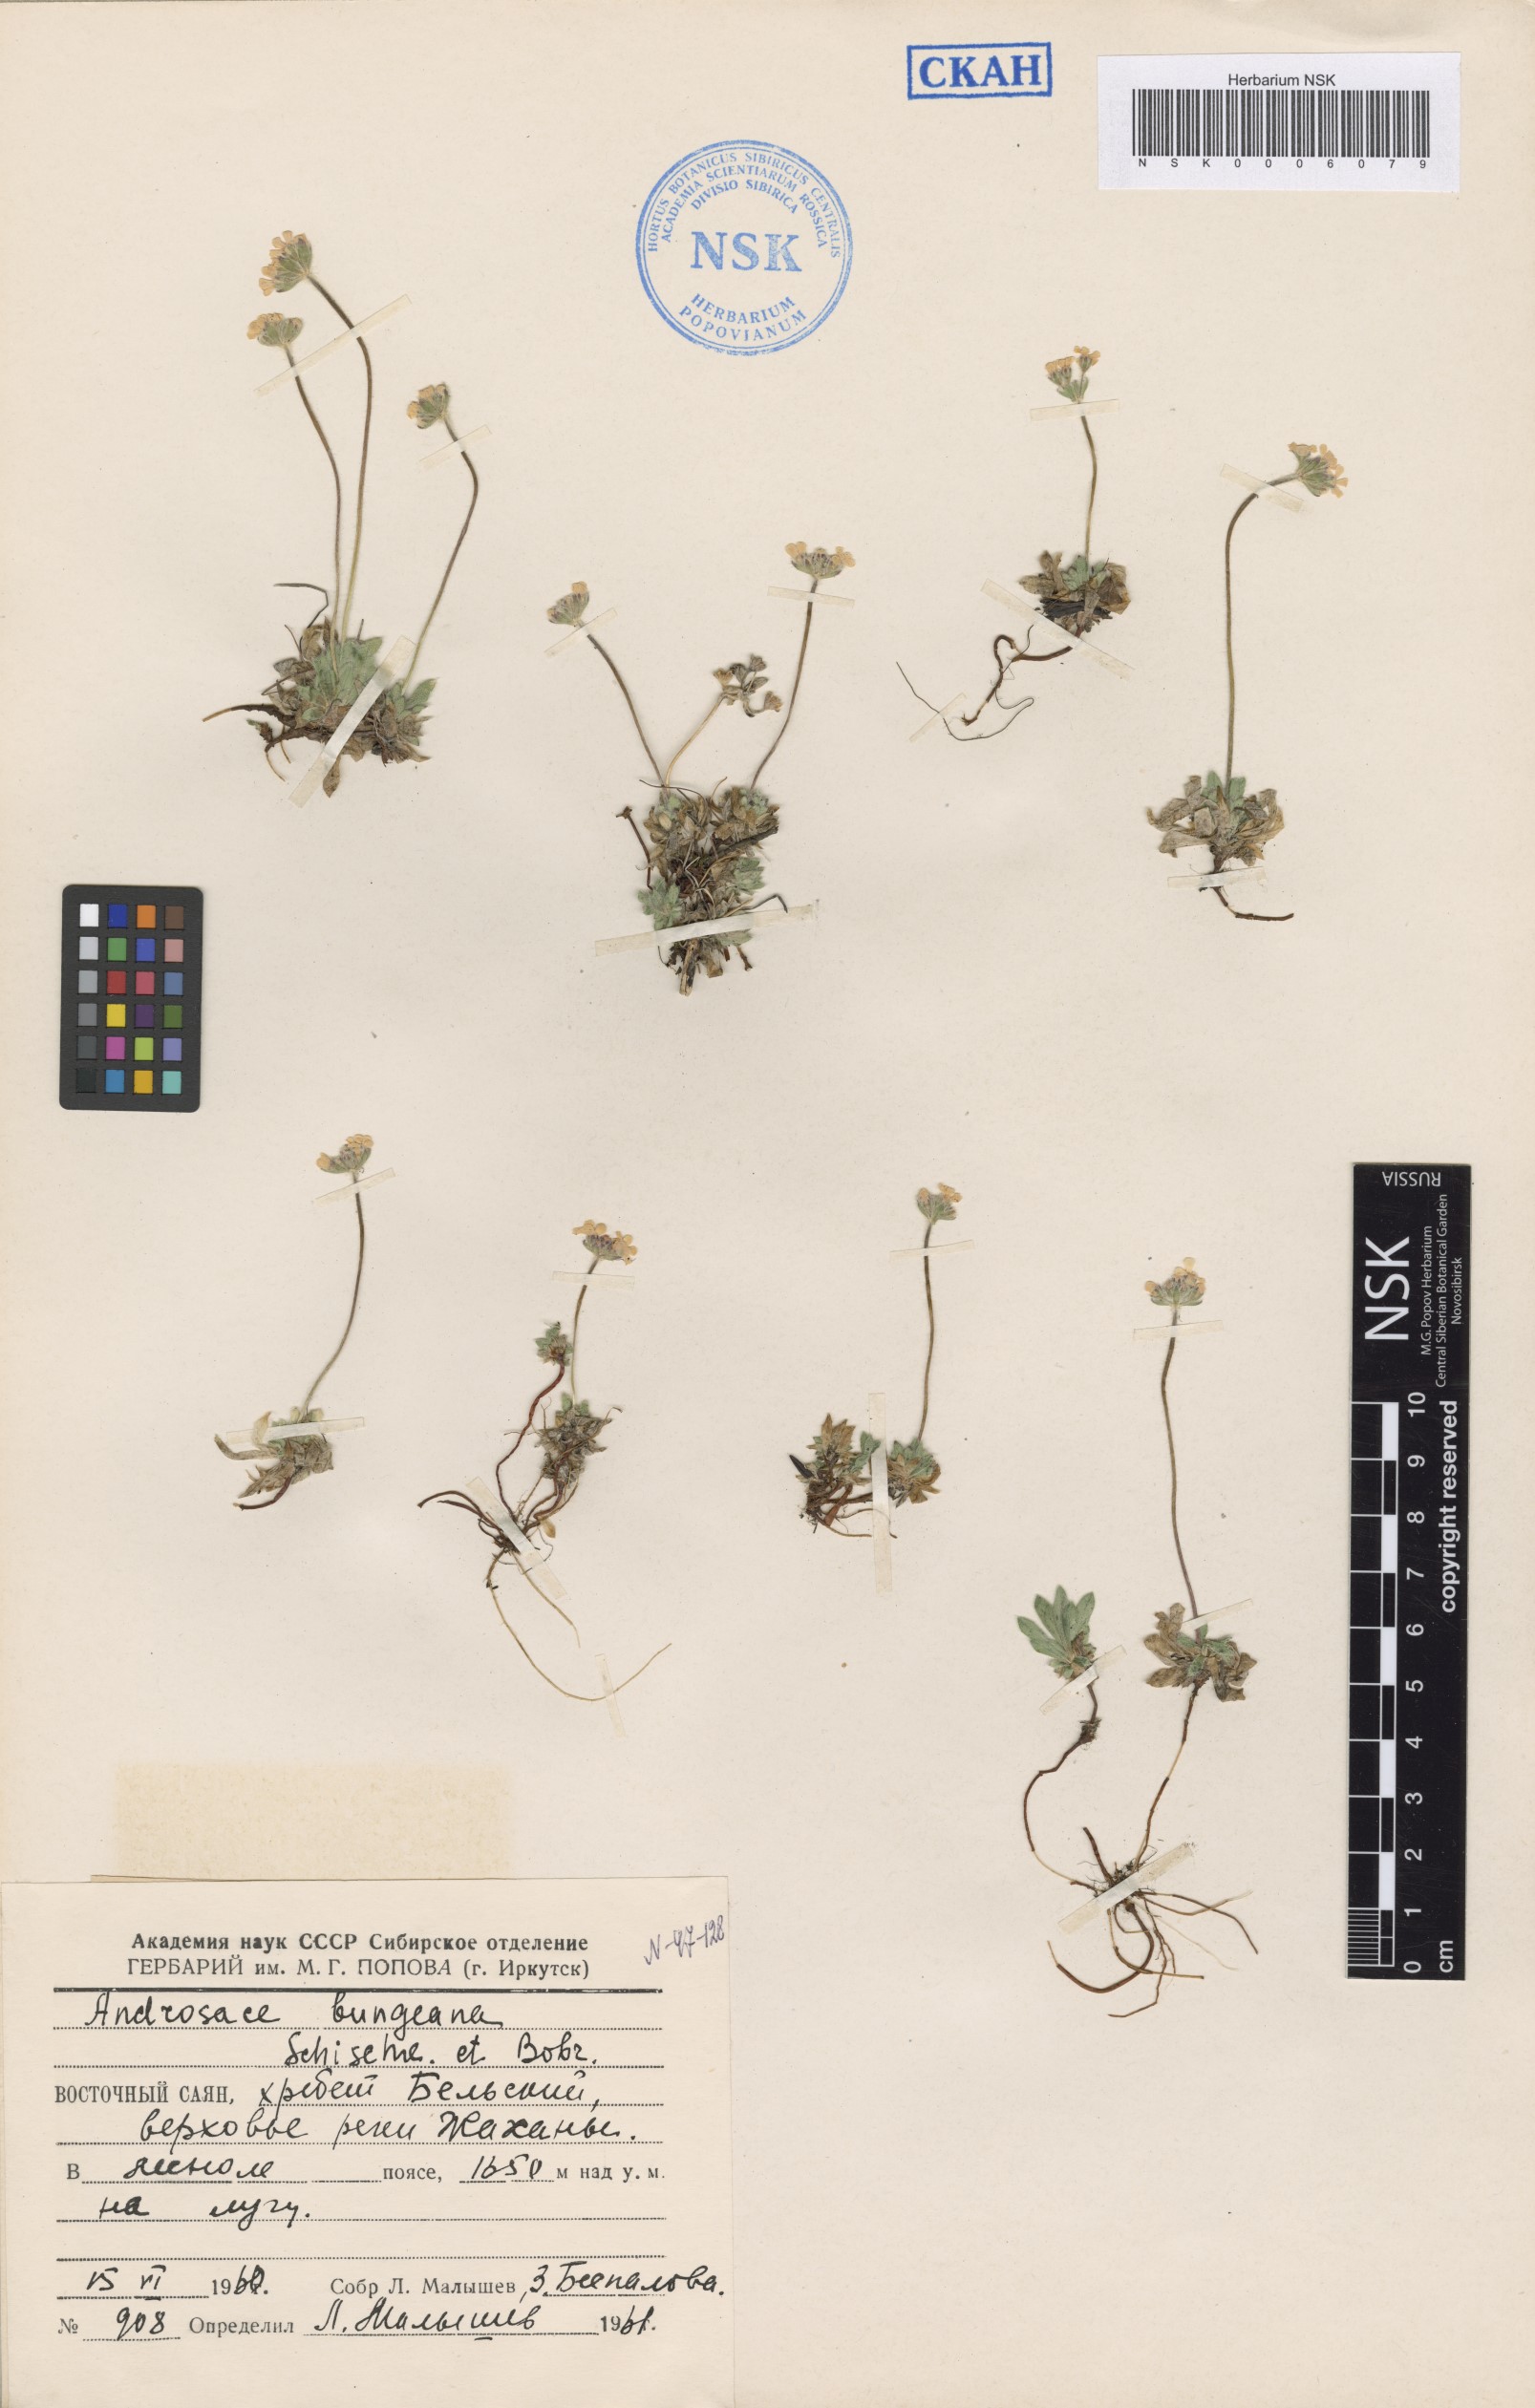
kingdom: Plantae
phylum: Tracheophyta
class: Magnoliopsida
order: Ericales
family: Primulaceae
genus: Androsace
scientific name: Androsace bungeana
